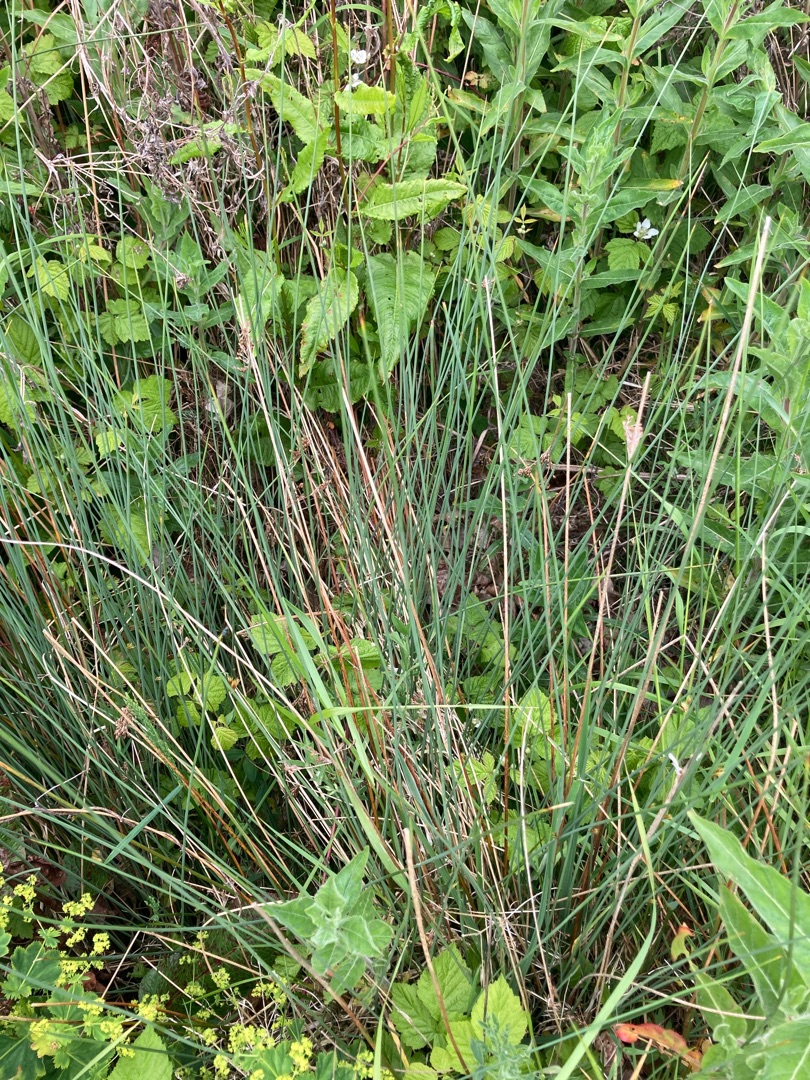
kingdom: Plantae
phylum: Tracheophyta
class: Liliopsida
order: Poales
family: Juncaceae
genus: Juncus
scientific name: Juncus inflexus
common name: Blågrå siv
